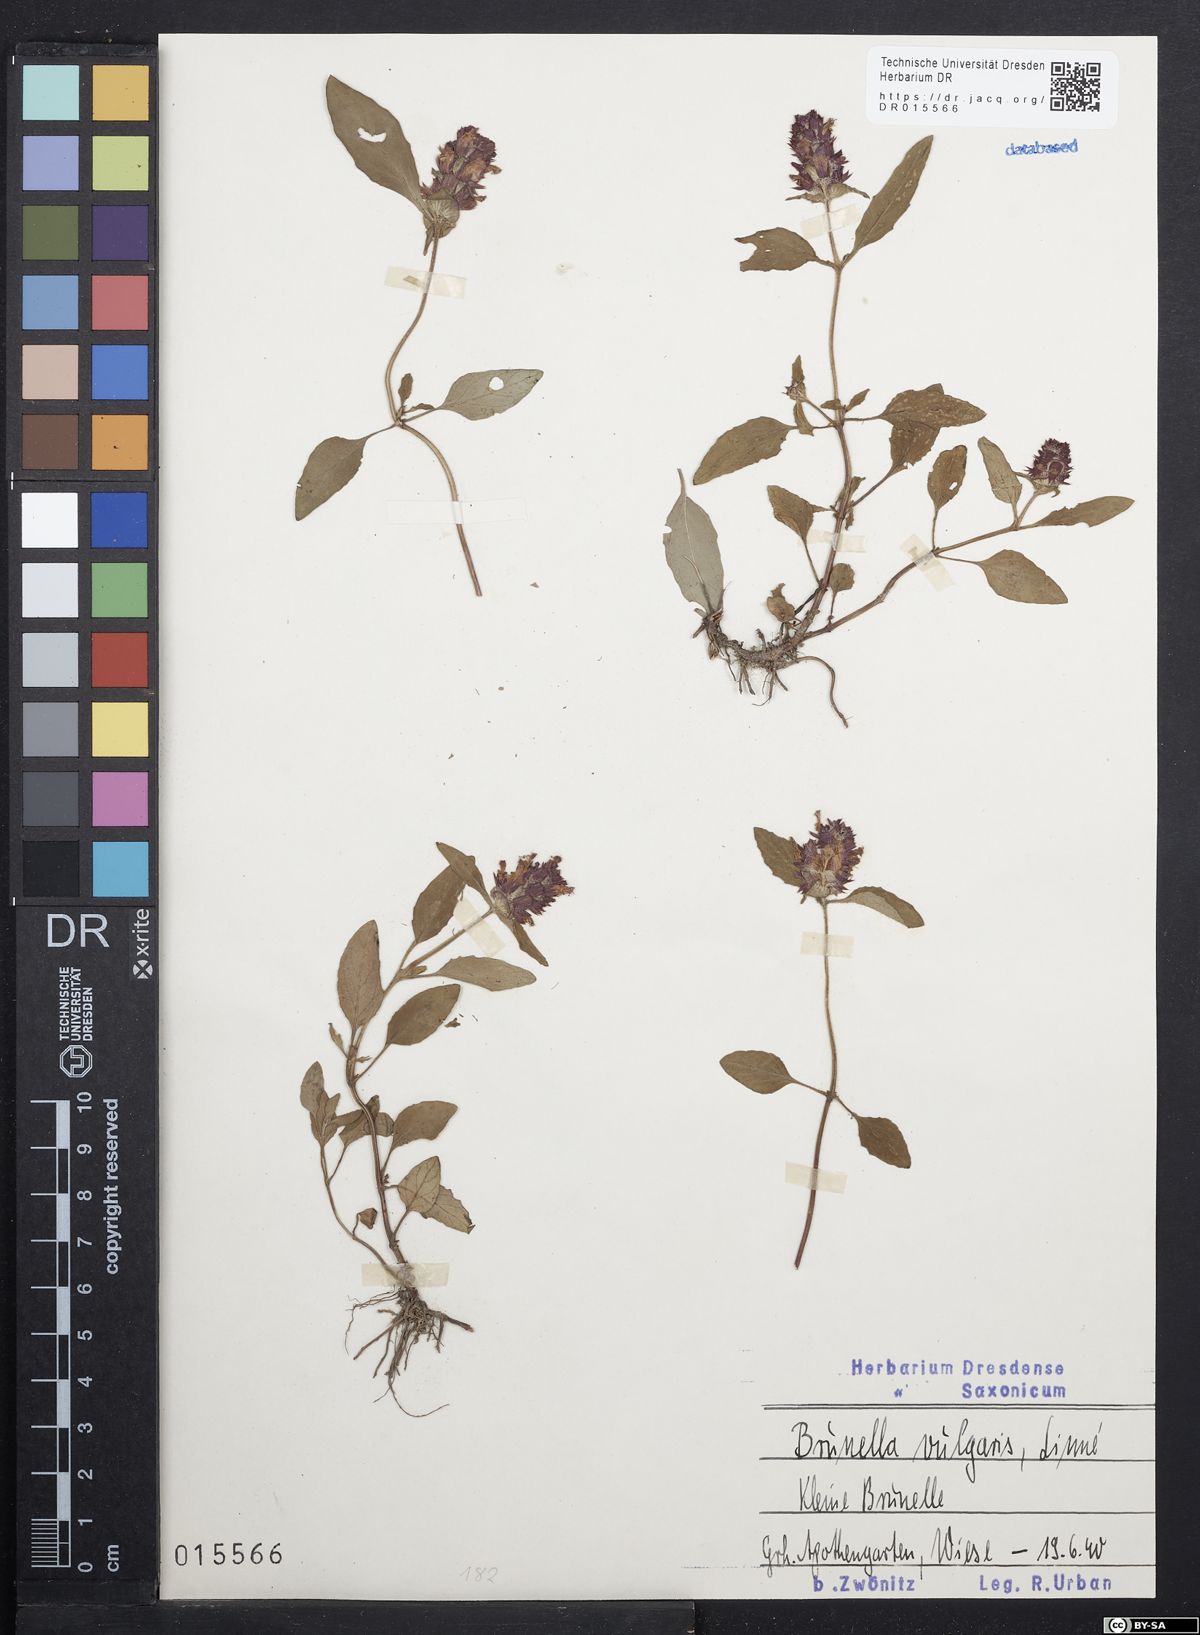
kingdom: Plantae
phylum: Tracheophyta
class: Magnoliopsida
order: Lamiales
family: Lamiaceae
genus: Prunella
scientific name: Prunella vulgaris
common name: Heal-all
